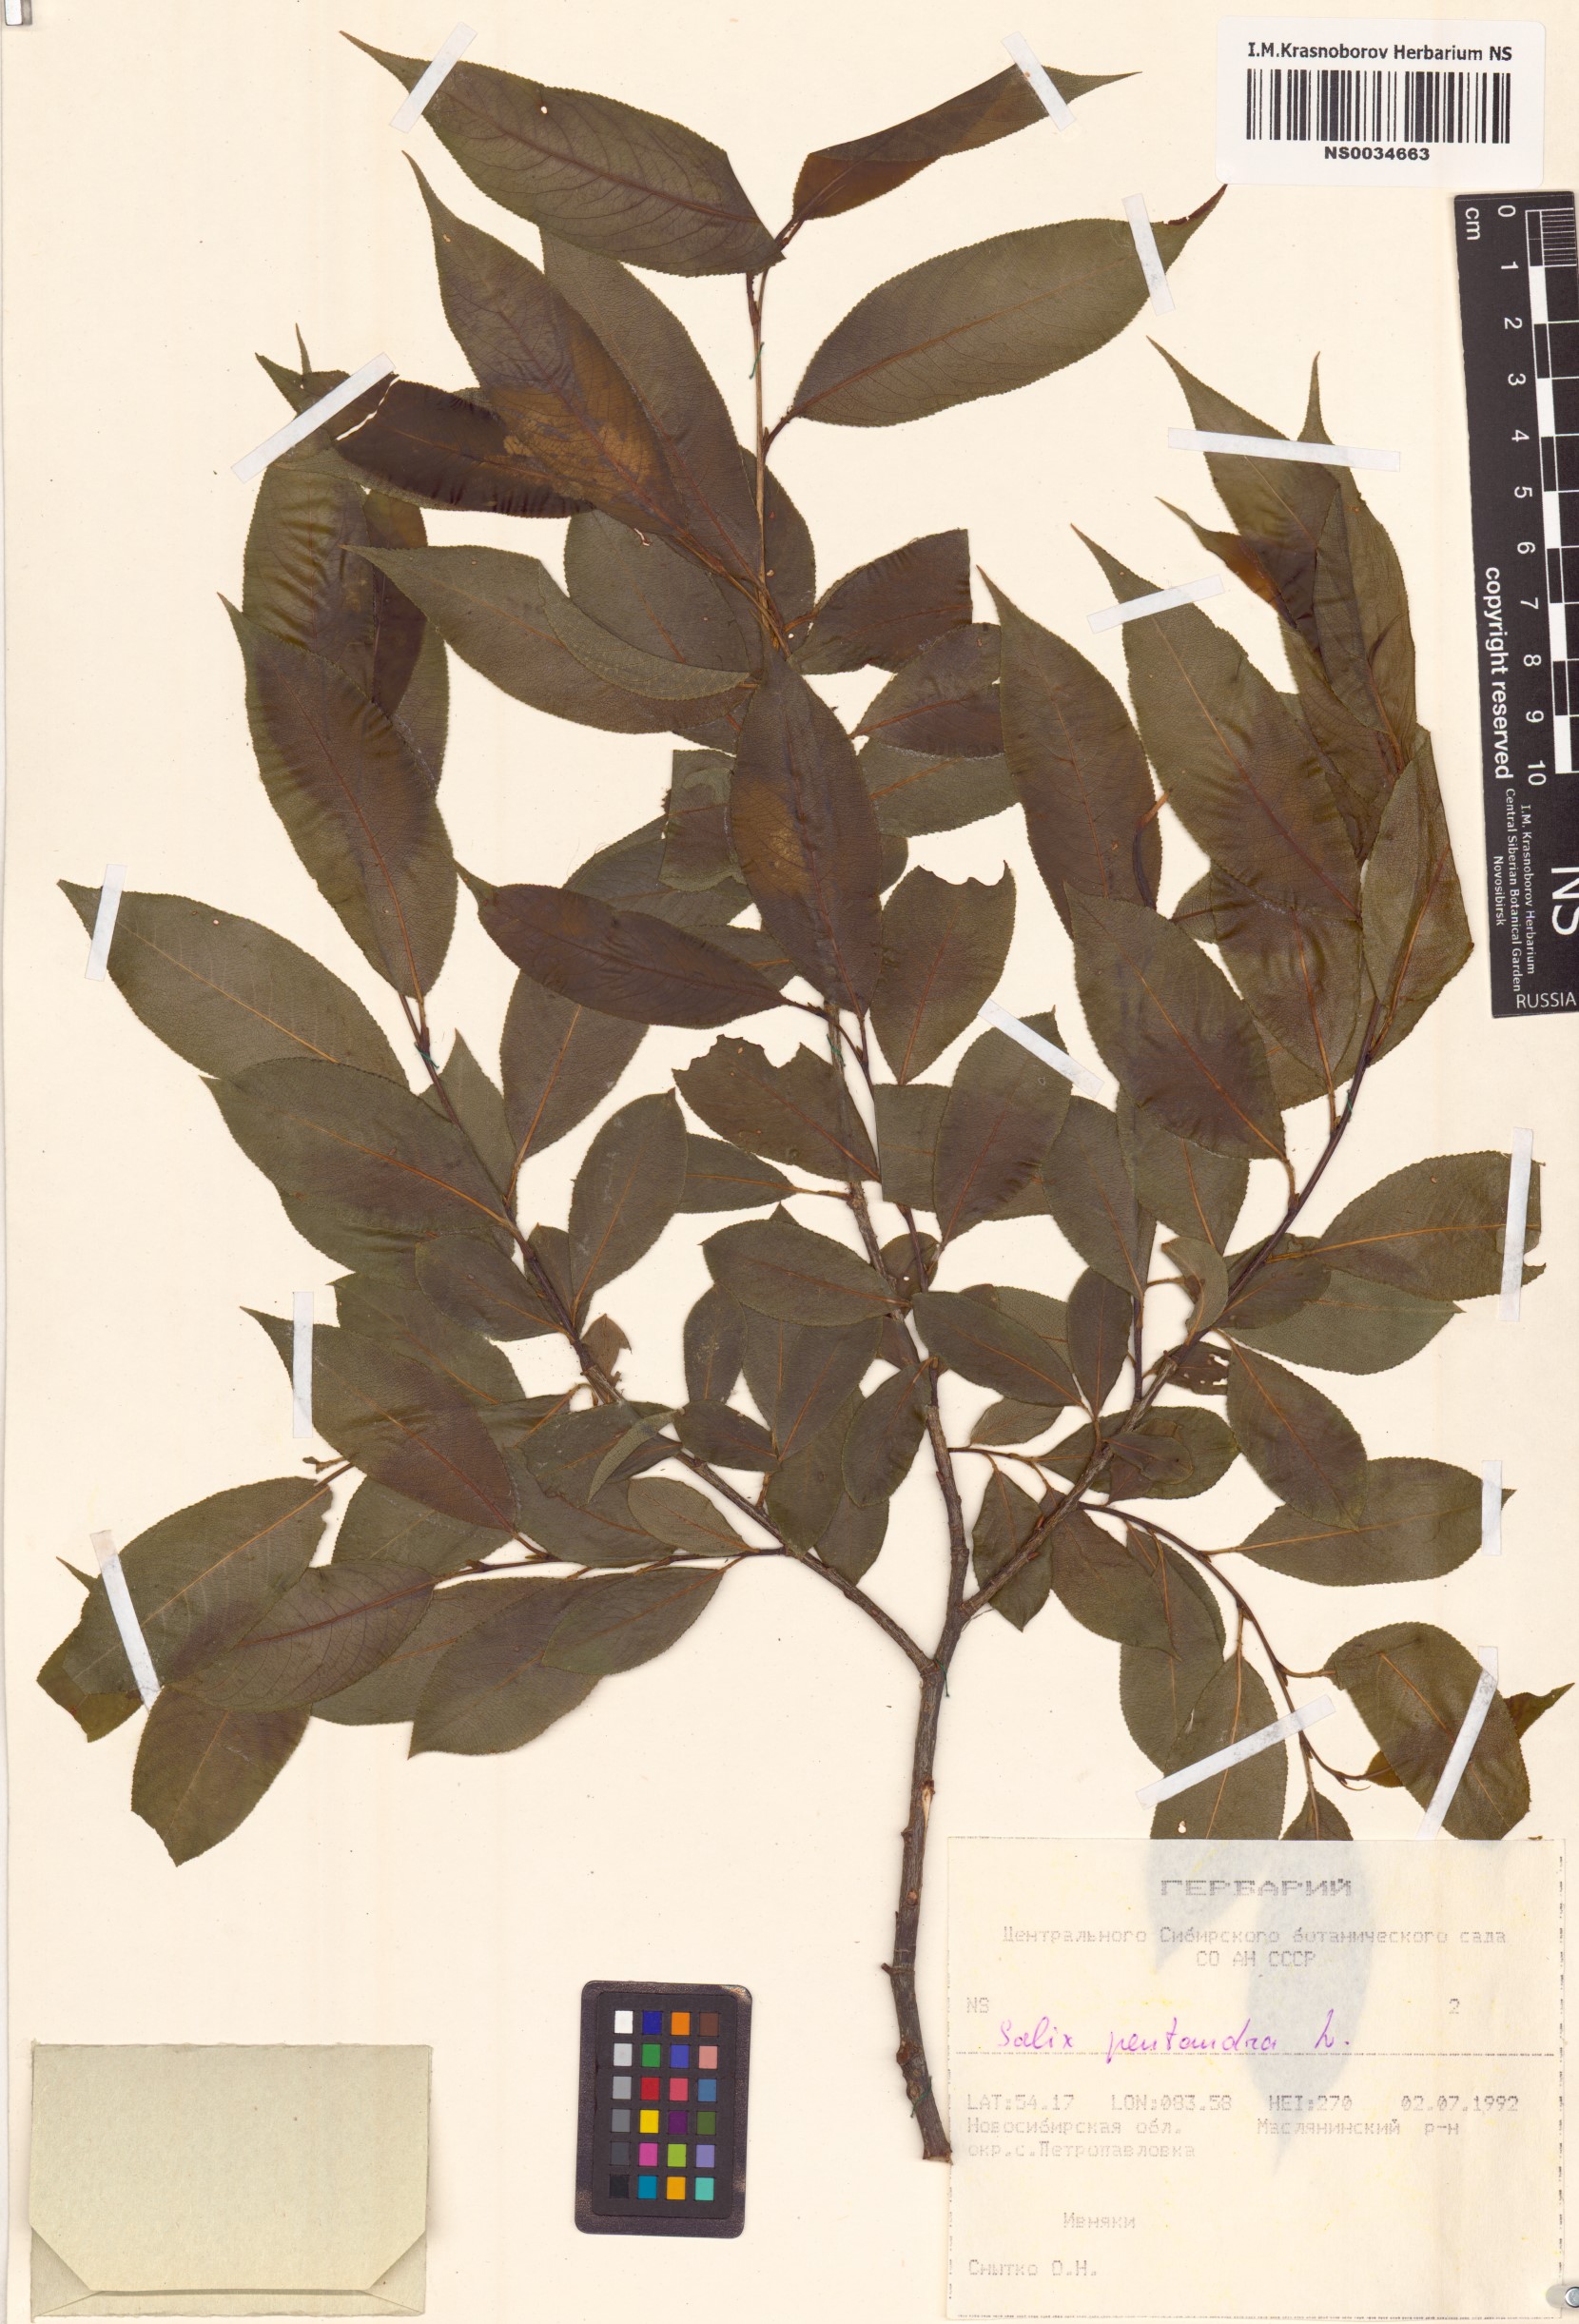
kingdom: Plantae
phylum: Tracheophyta
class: Magnoliopsida
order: Malpighiales
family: Salicaceae
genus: Salix
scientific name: Salix pentandra
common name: Bay willow
